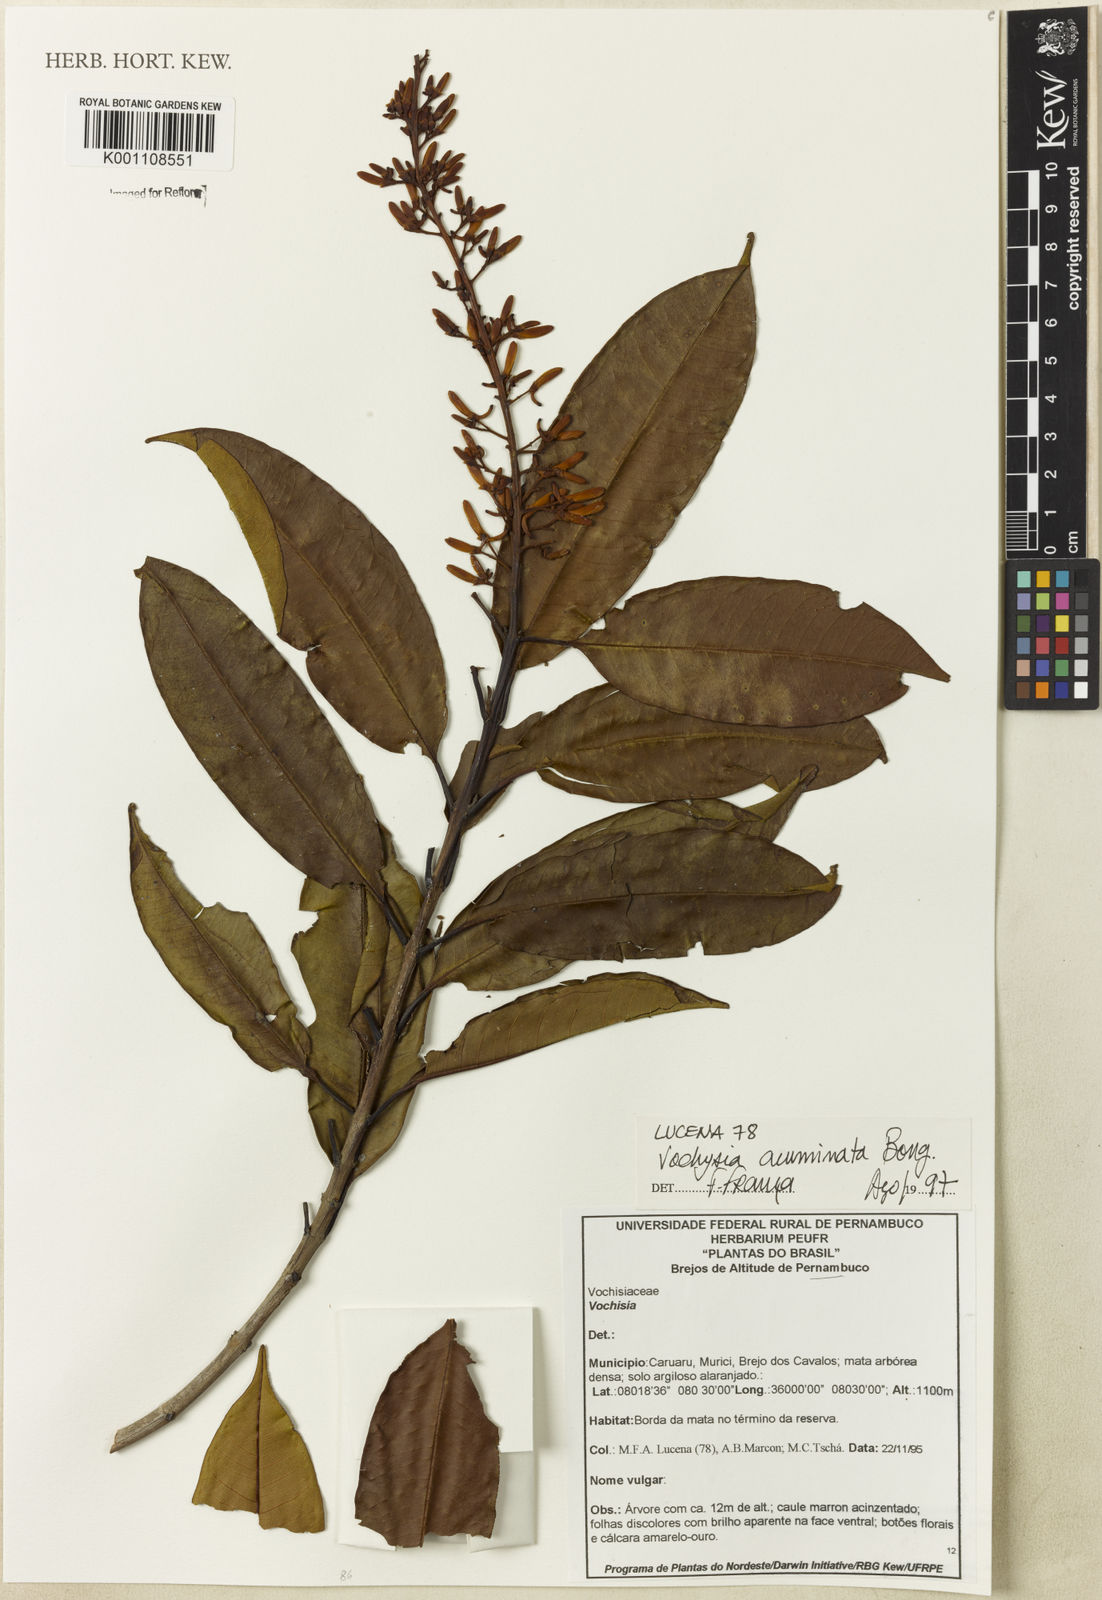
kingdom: Plantae
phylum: Tracheophyta
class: Magnoliopsida
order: Myrtales
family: Vochysiaceae
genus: Vochysia
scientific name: Vochysia acuminata
